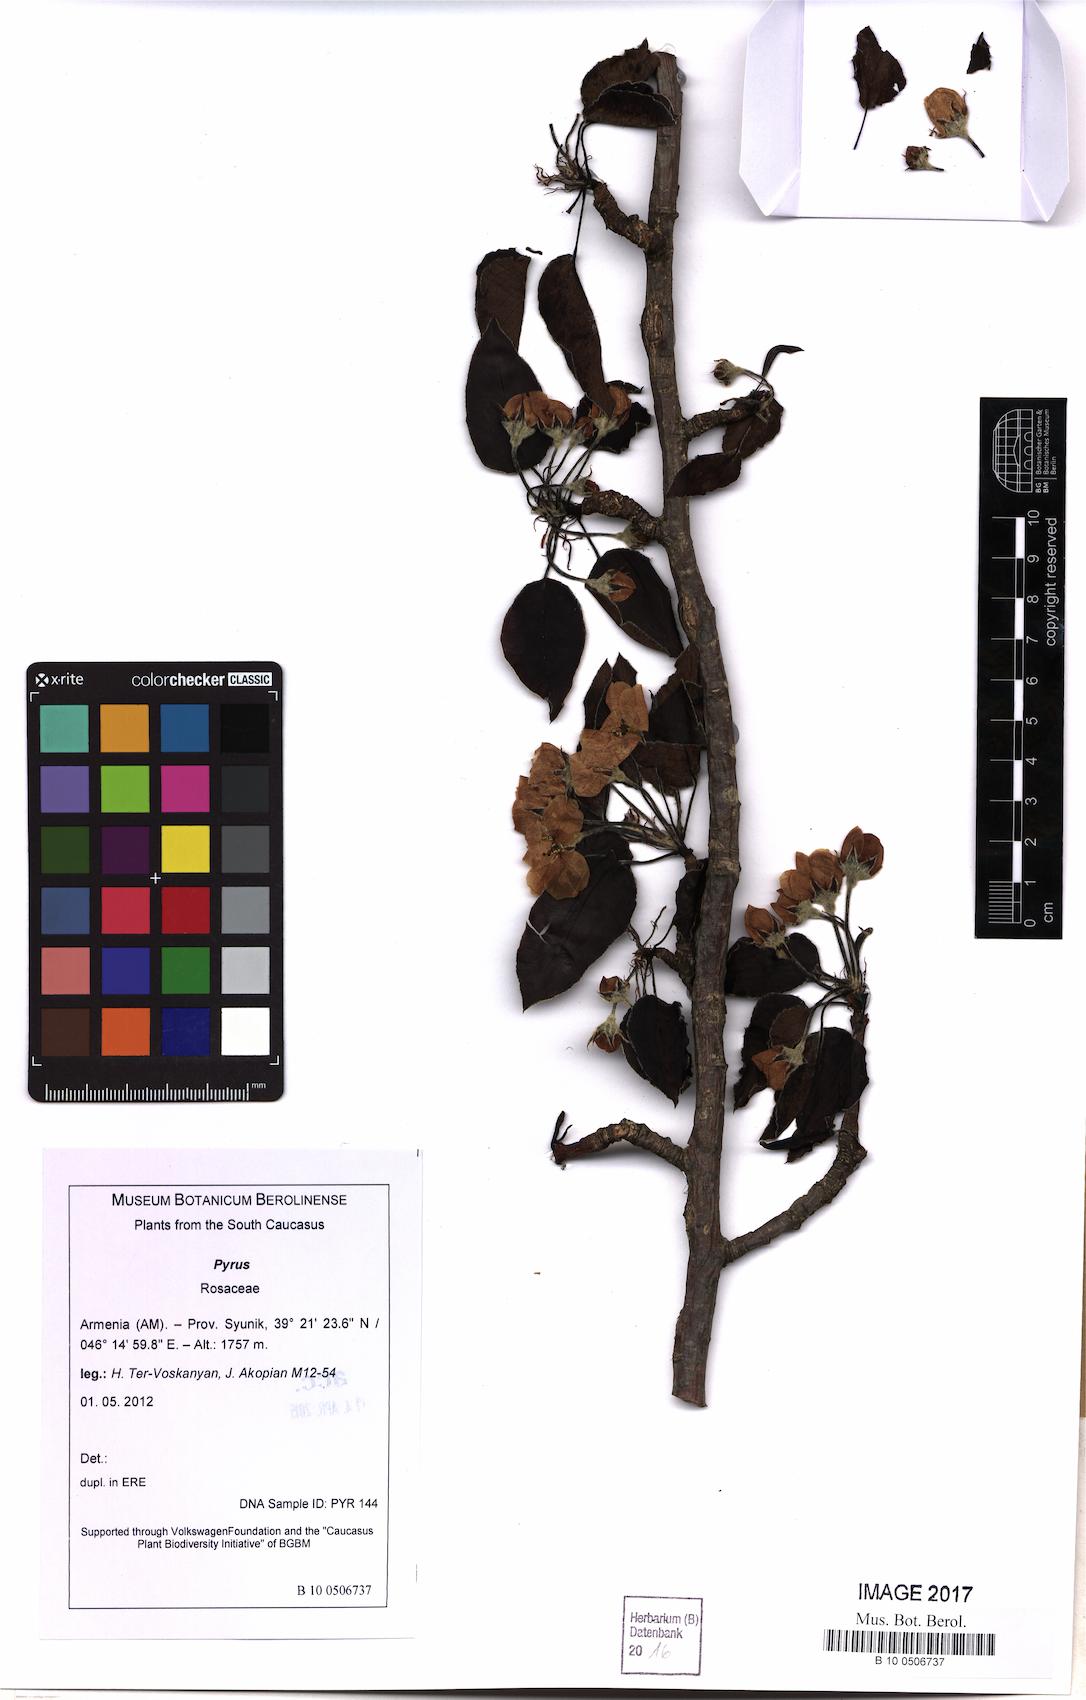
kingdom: Plantae
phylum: Tracheophyta
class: Magnoliopsida
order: Rosales
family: Rosaceae
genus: Pyrus
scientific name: Pyrus
